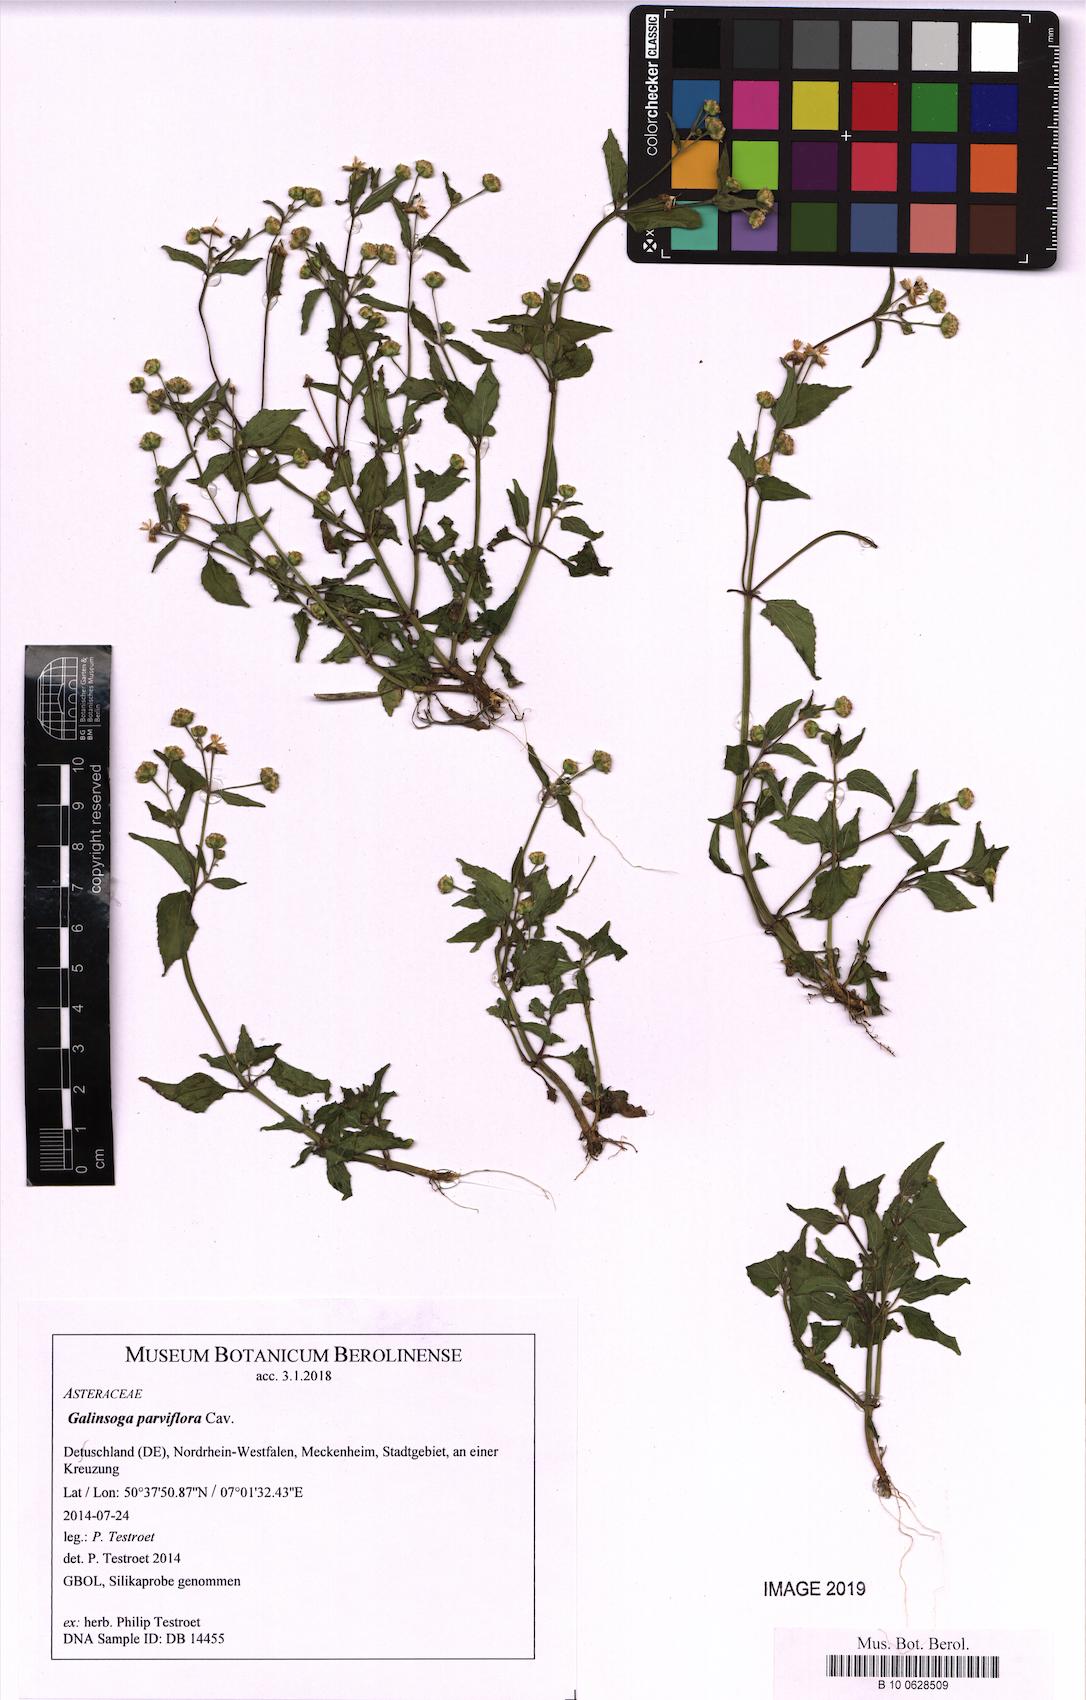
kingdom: Plantae
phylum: Tracheophyta
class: Magnoliopsida
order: Asterales
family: Asteraceae
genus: Galinsoga
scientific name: Galinsoga parviflora
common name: Gallant soldier
